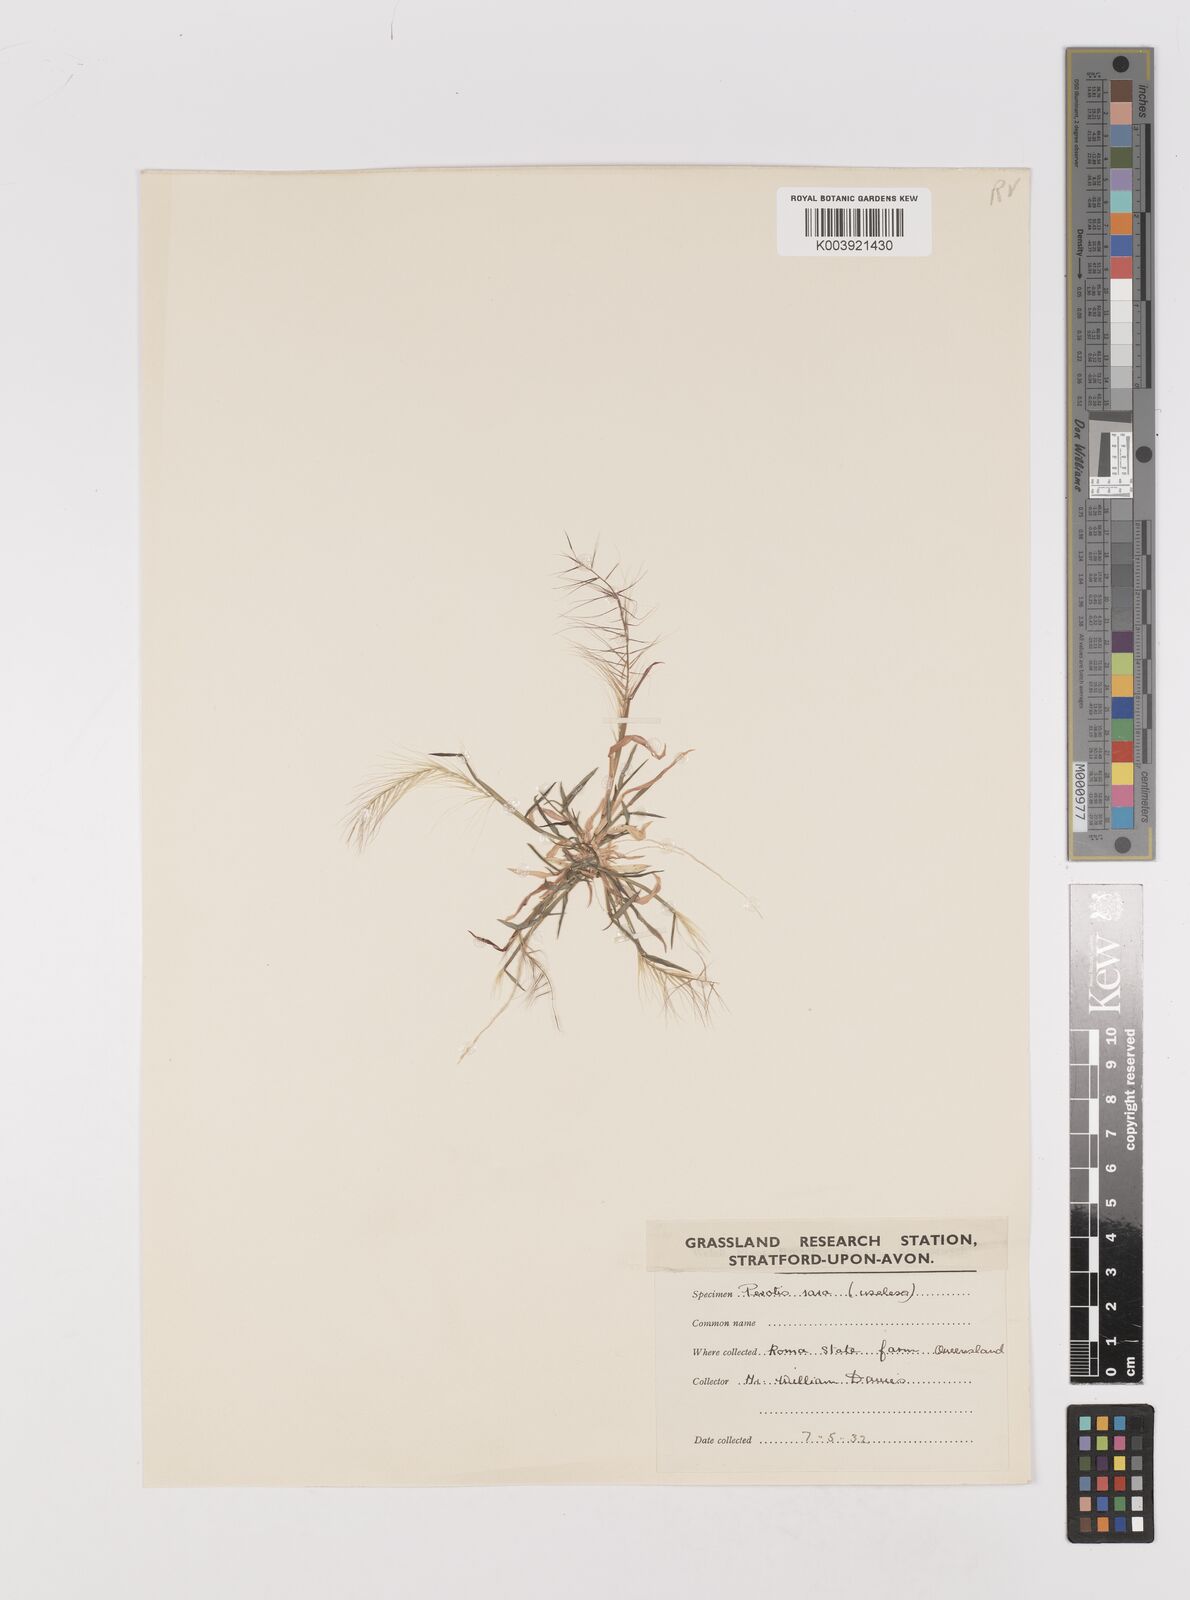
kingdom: Plantae
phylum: Tracheophyta
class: Liliopsida
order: Poales
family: Poaceae
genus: Perotis
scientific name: Perotis rara
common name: Comet grass
